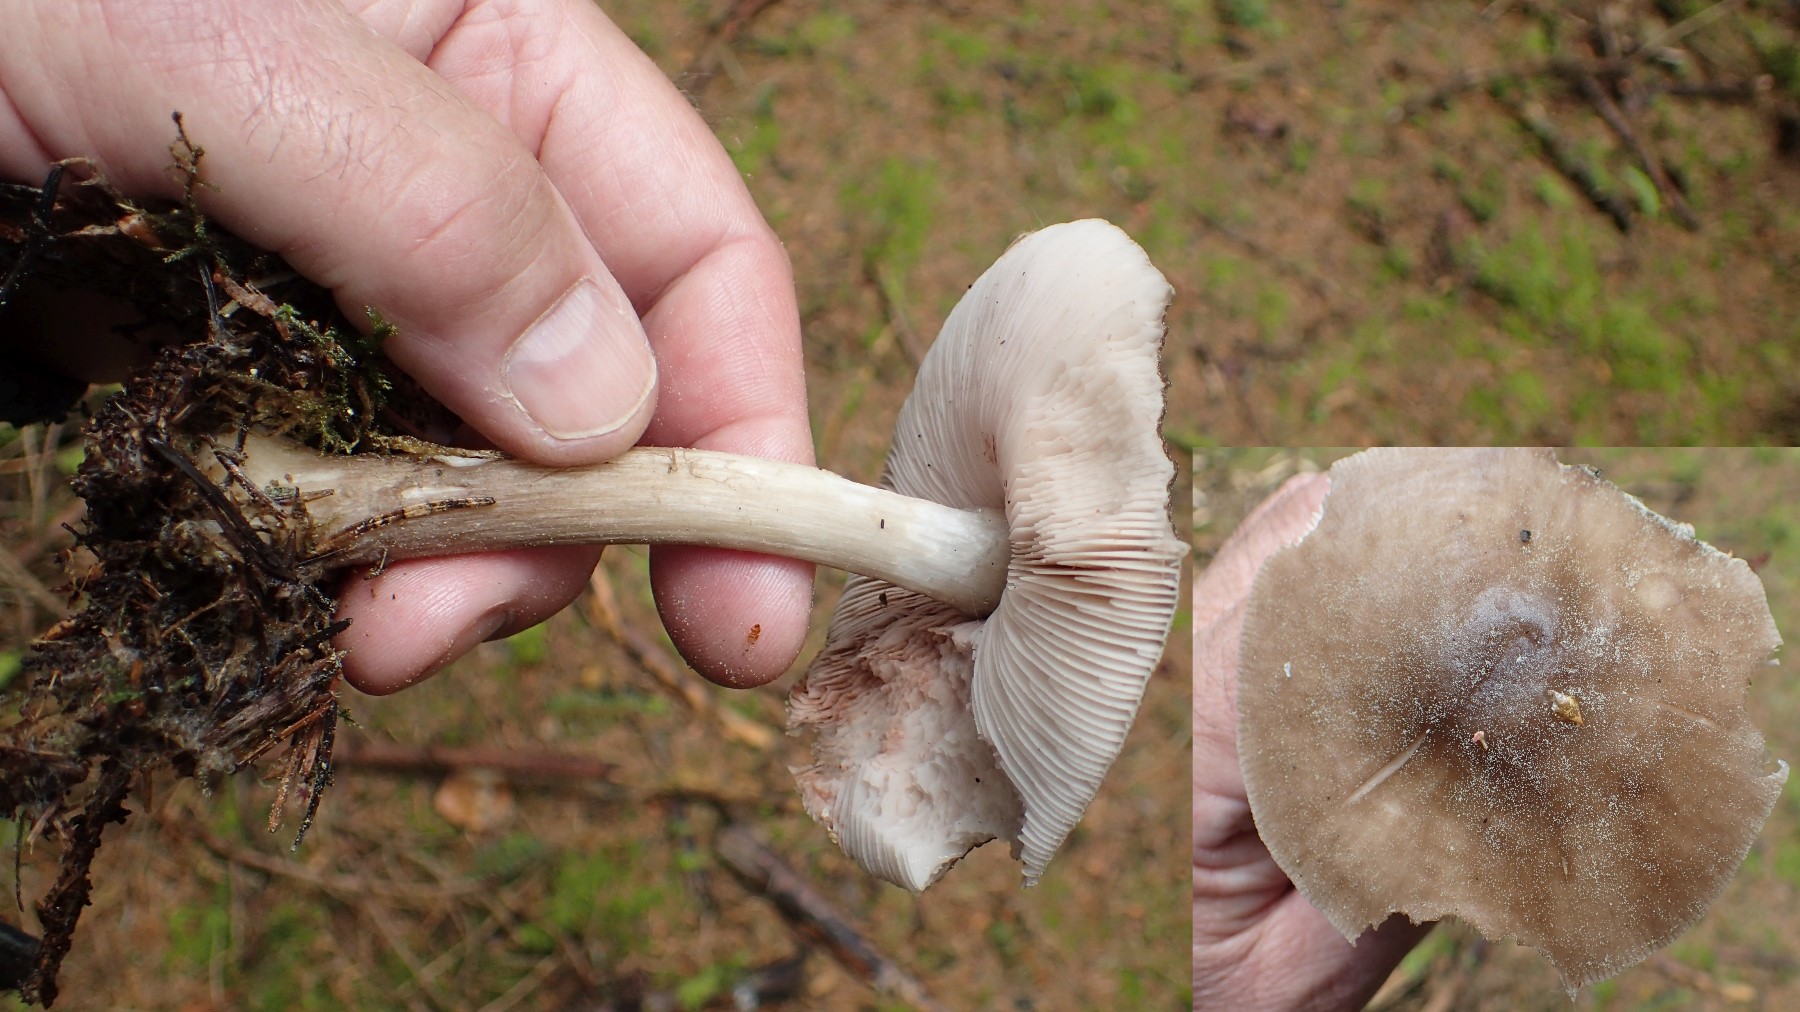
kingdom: Fungi
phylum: Basidiomycota
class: Agaricomycetes
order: Agaricales
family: Pluteaceae
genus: Pluteus
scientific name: Pluteus primus
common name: tidlig skærmhat
